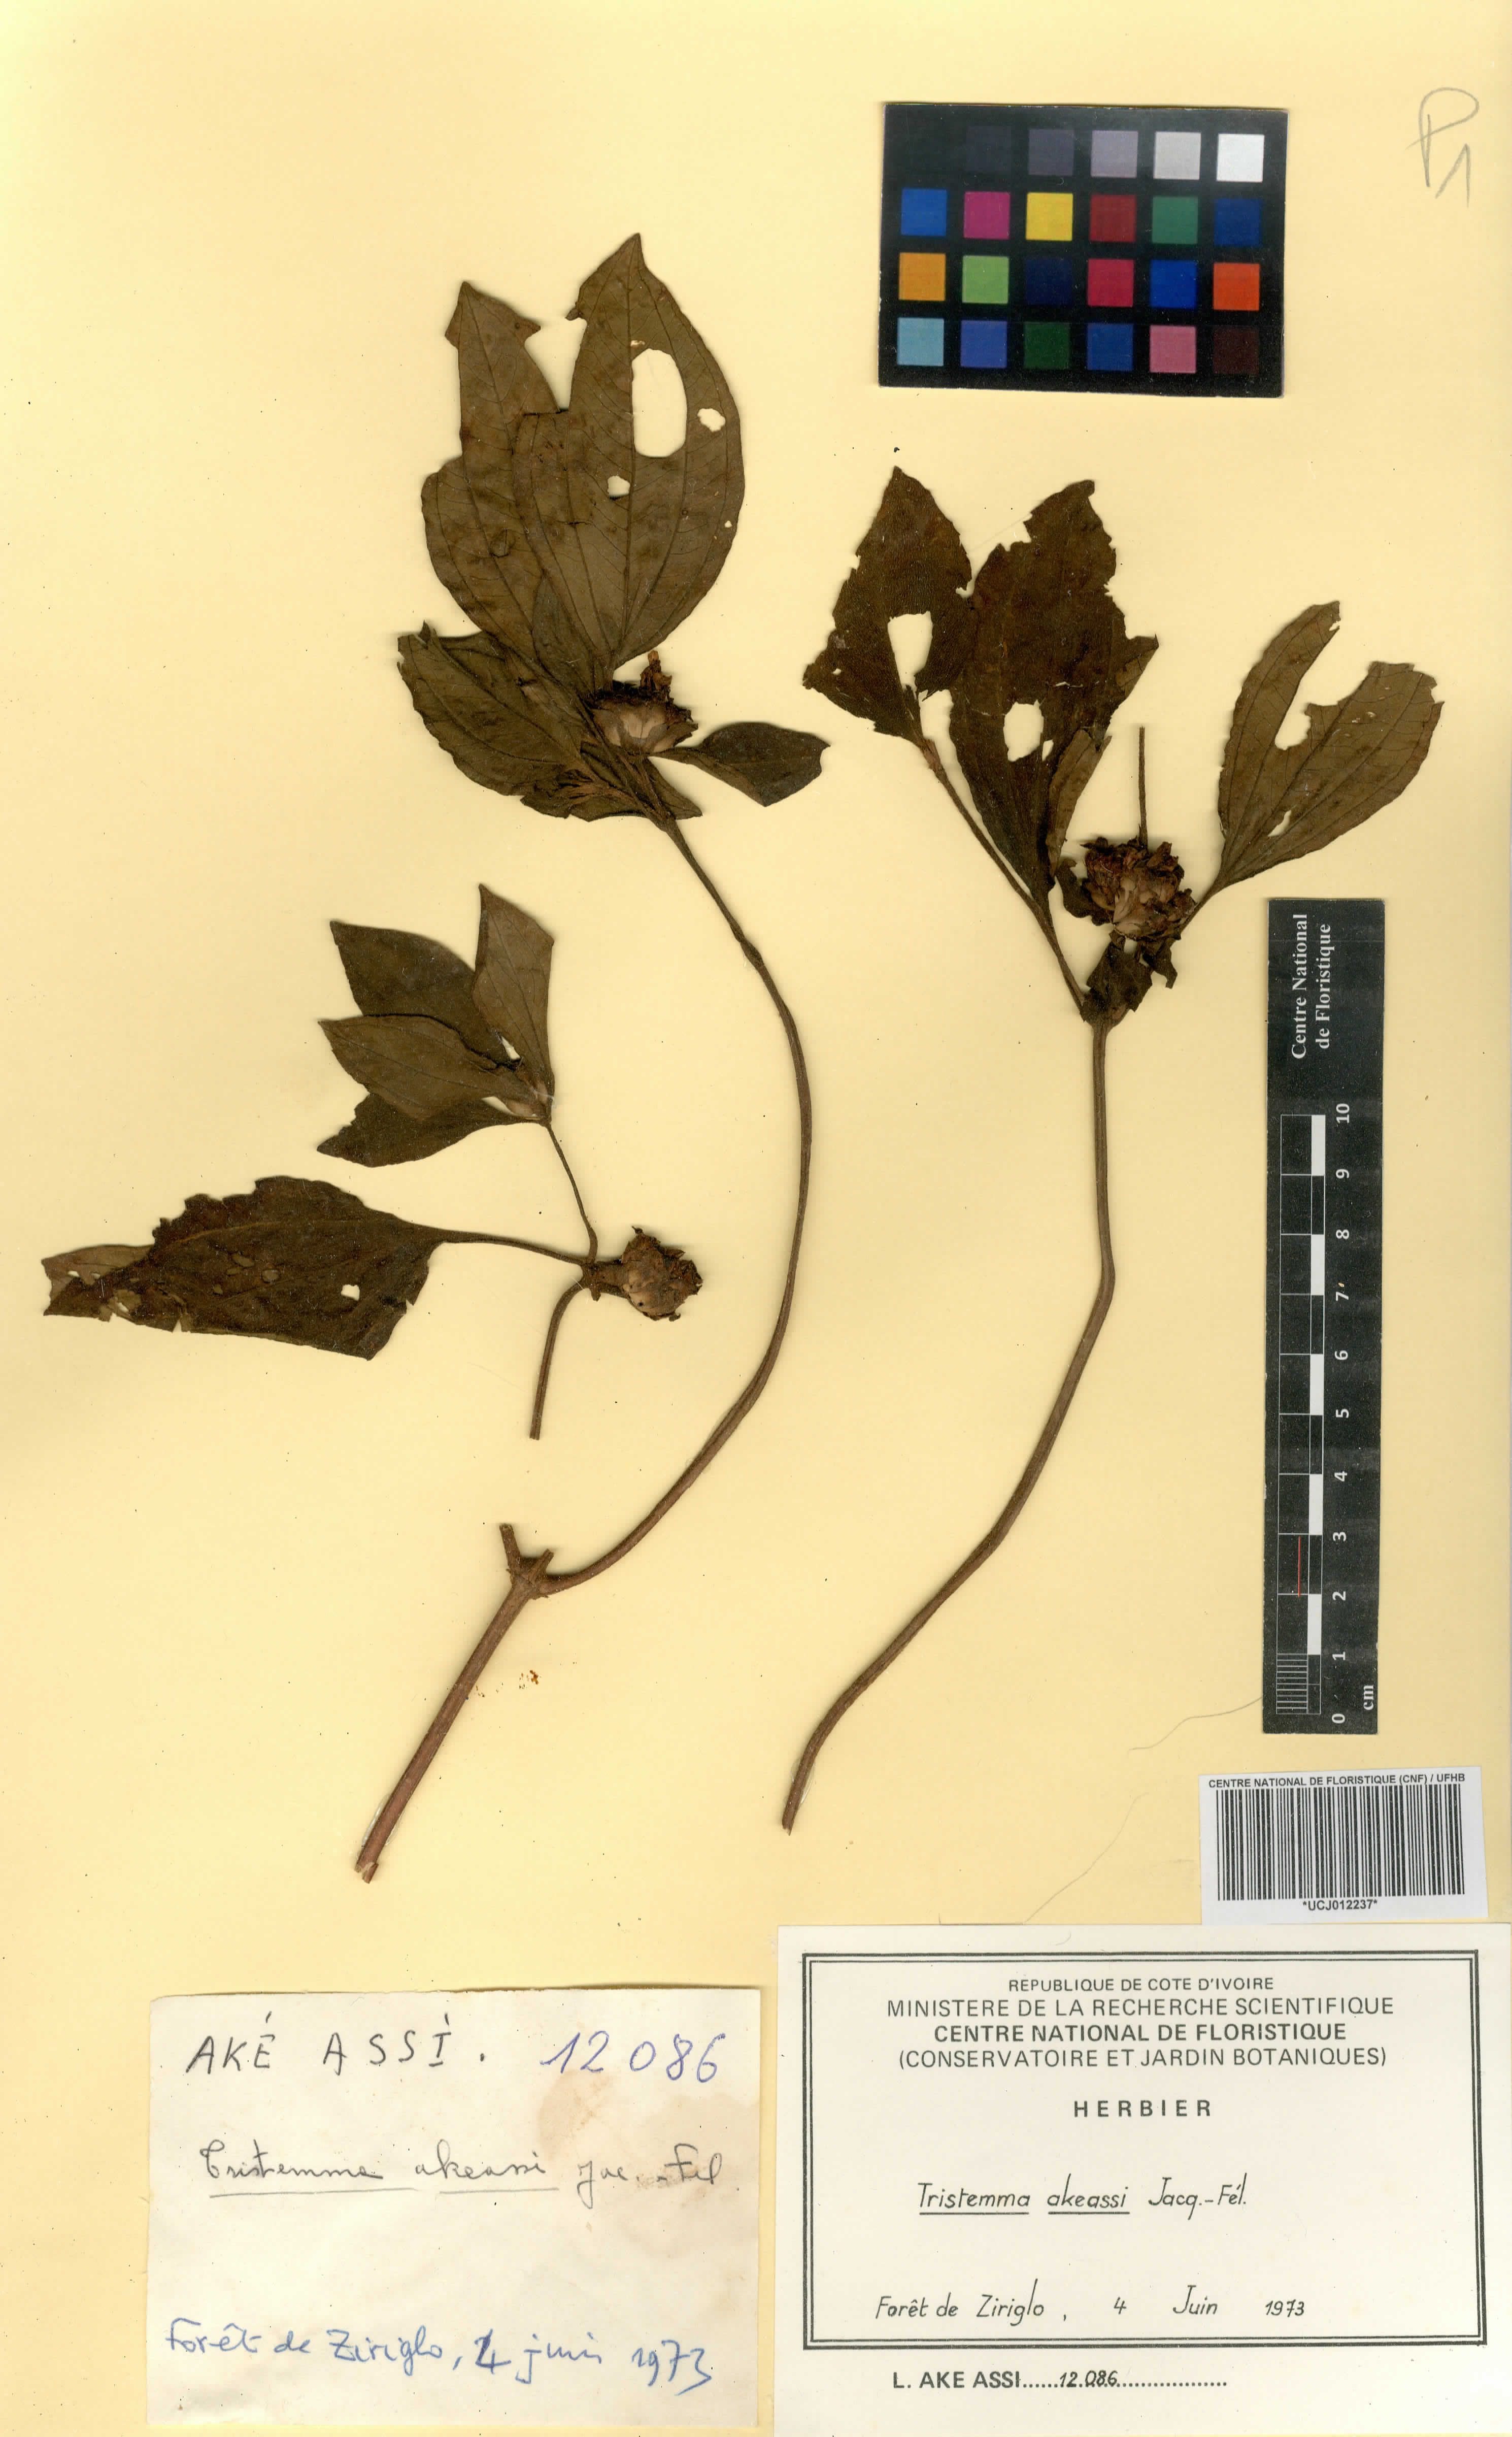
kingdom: Plantae
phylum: Tracheophyta
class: Magnoliopsida
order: Myrtales
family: Melastomataceae
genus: Tristemma
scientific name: Tristemma akeassii
